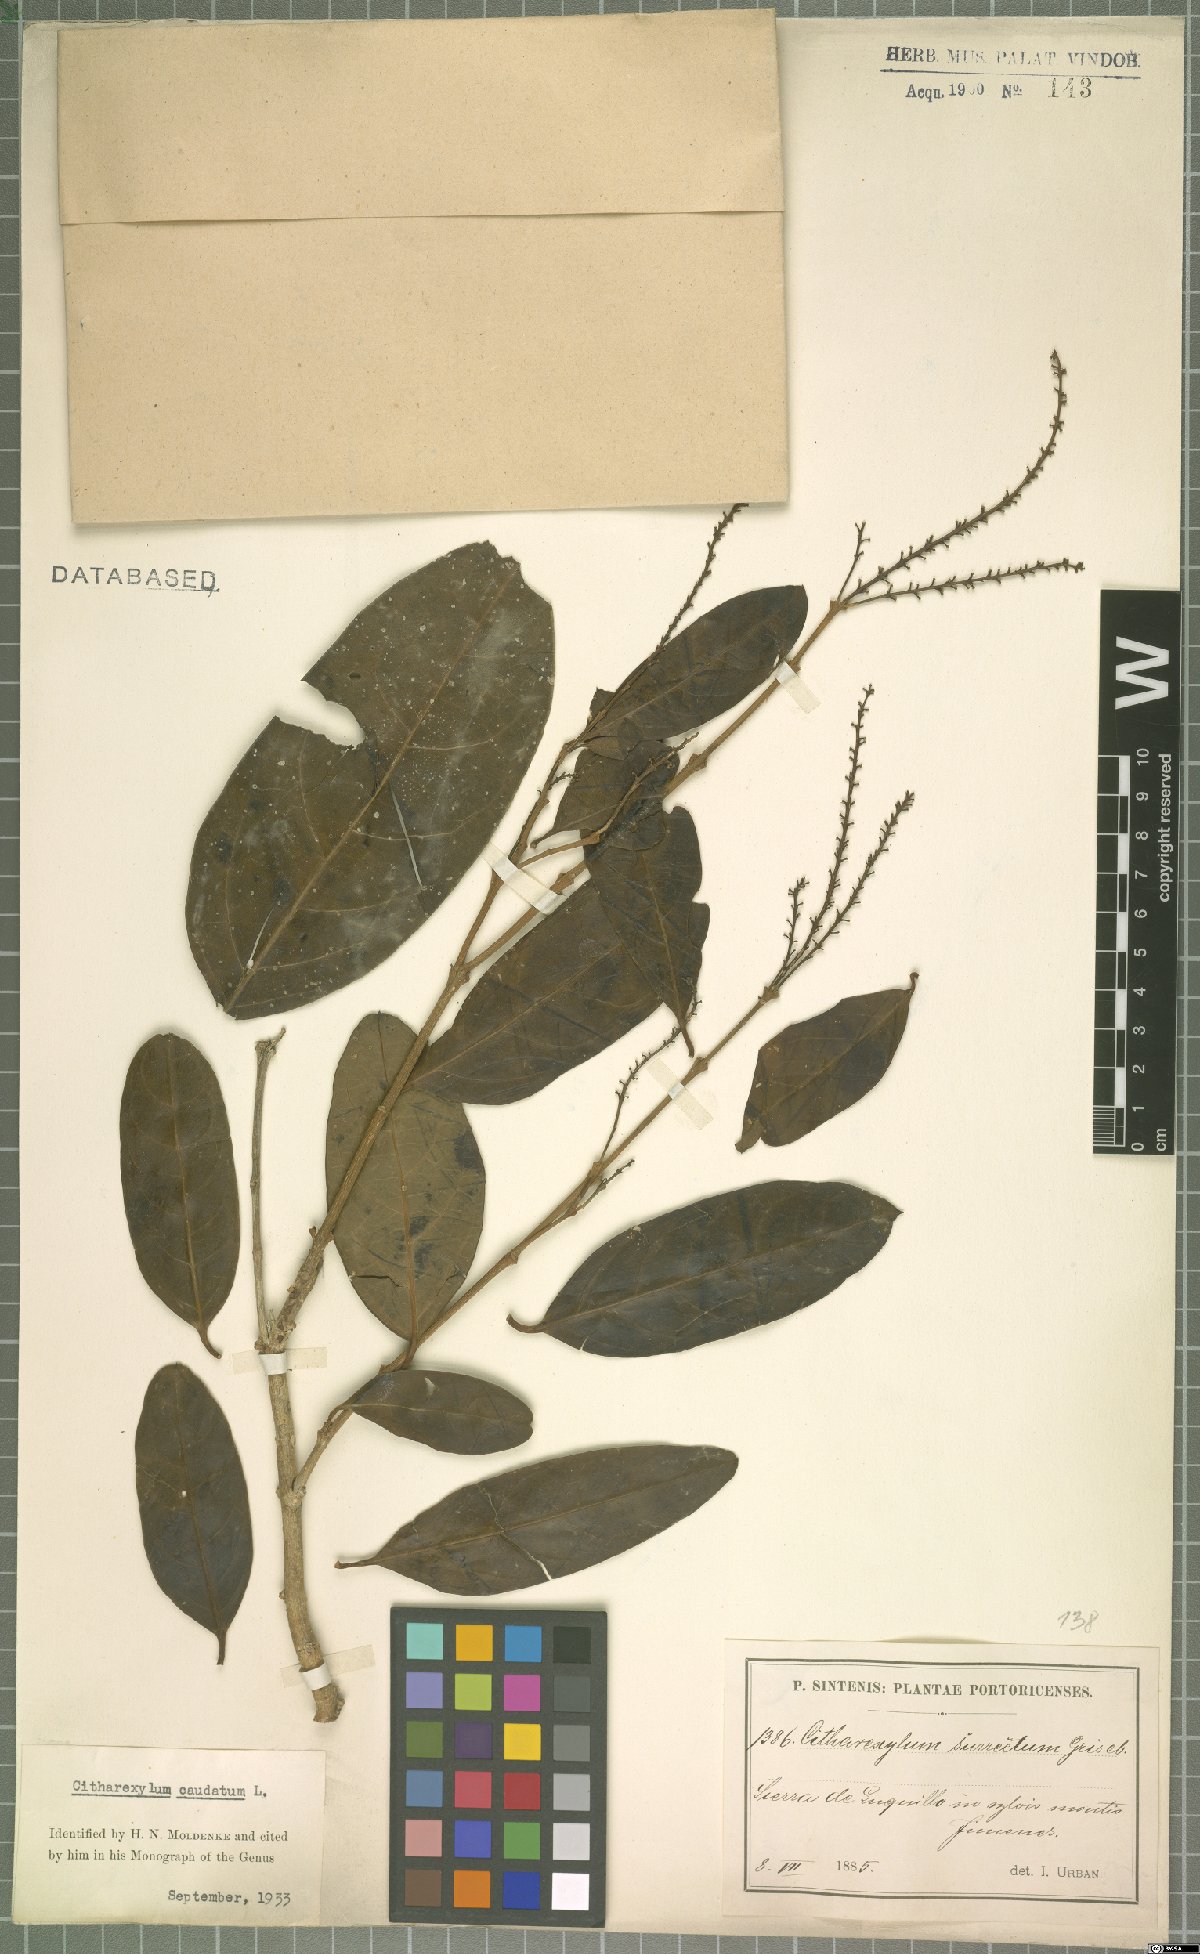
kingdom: Plantae
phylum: Tracheophyta
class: Magnoliopsida
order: Lamiales
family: Verbenaceae
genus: Citharexylum
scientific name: Citharexylum caudatum
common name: Fiddlewood
